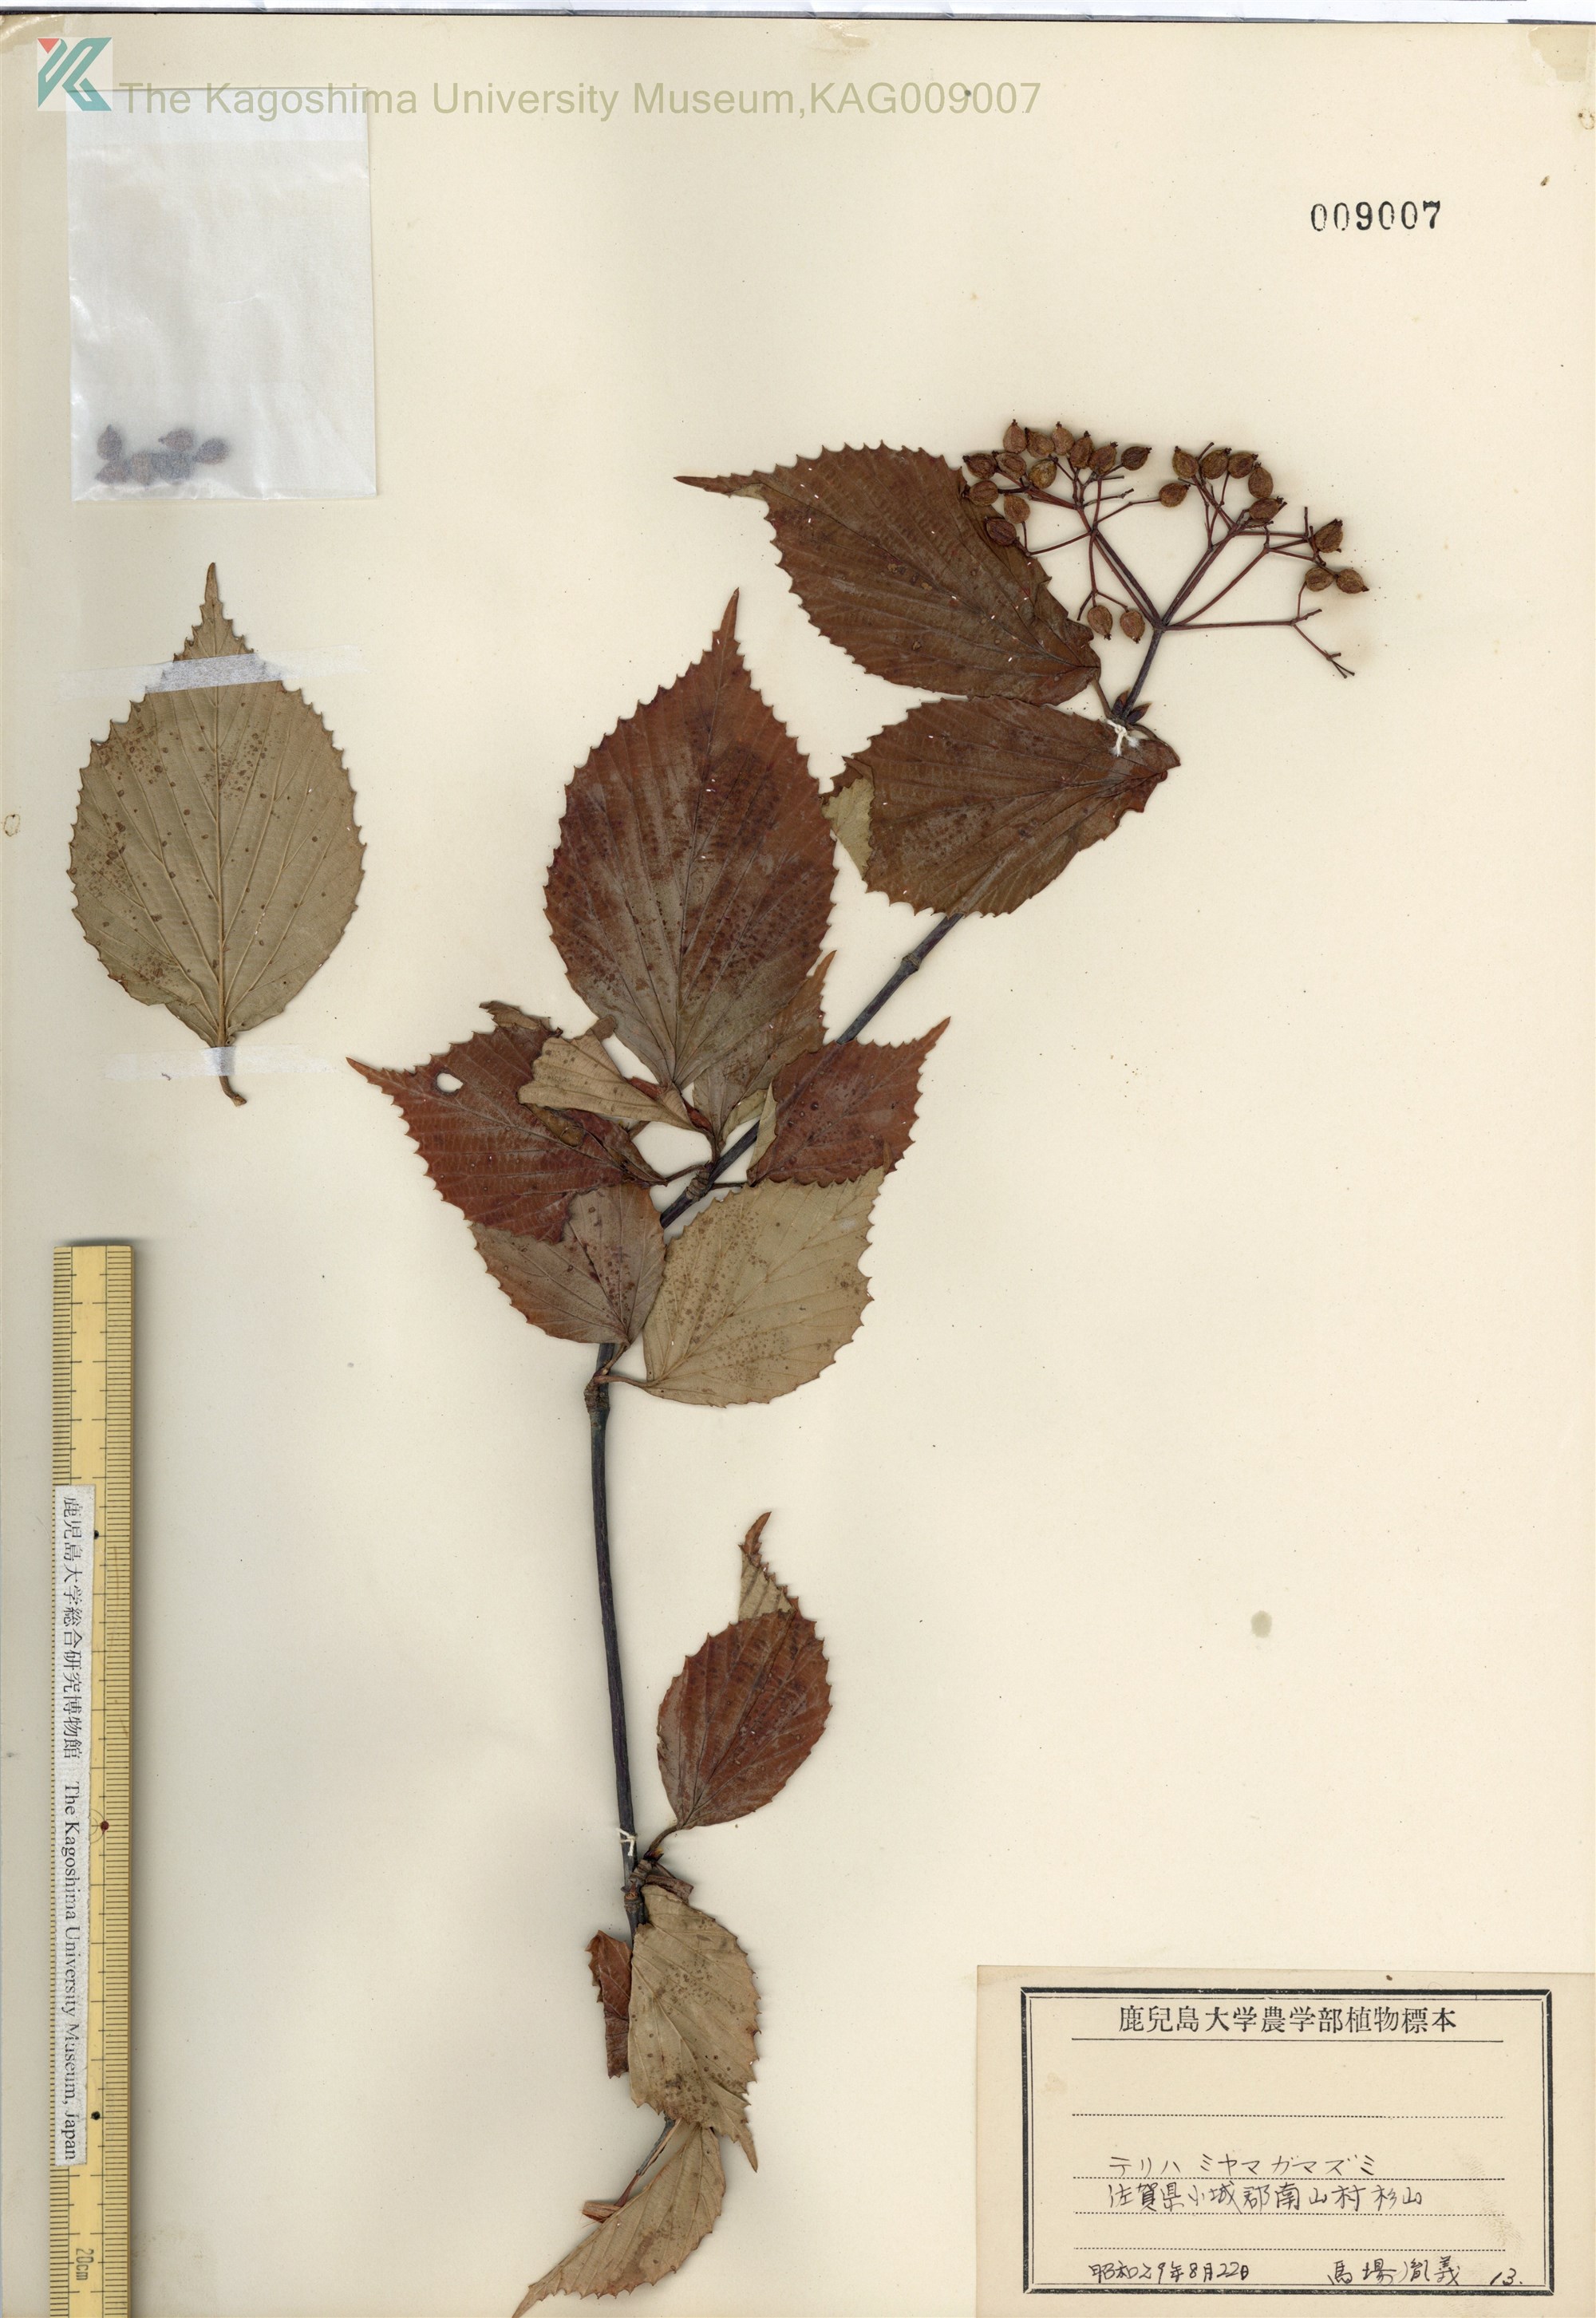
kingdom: Plantae
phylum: Tracheophyta
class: Magnoliopsida
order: Dipsacales
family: Viburnaceae
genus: Viburnum
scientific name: Viburnum wrightii
